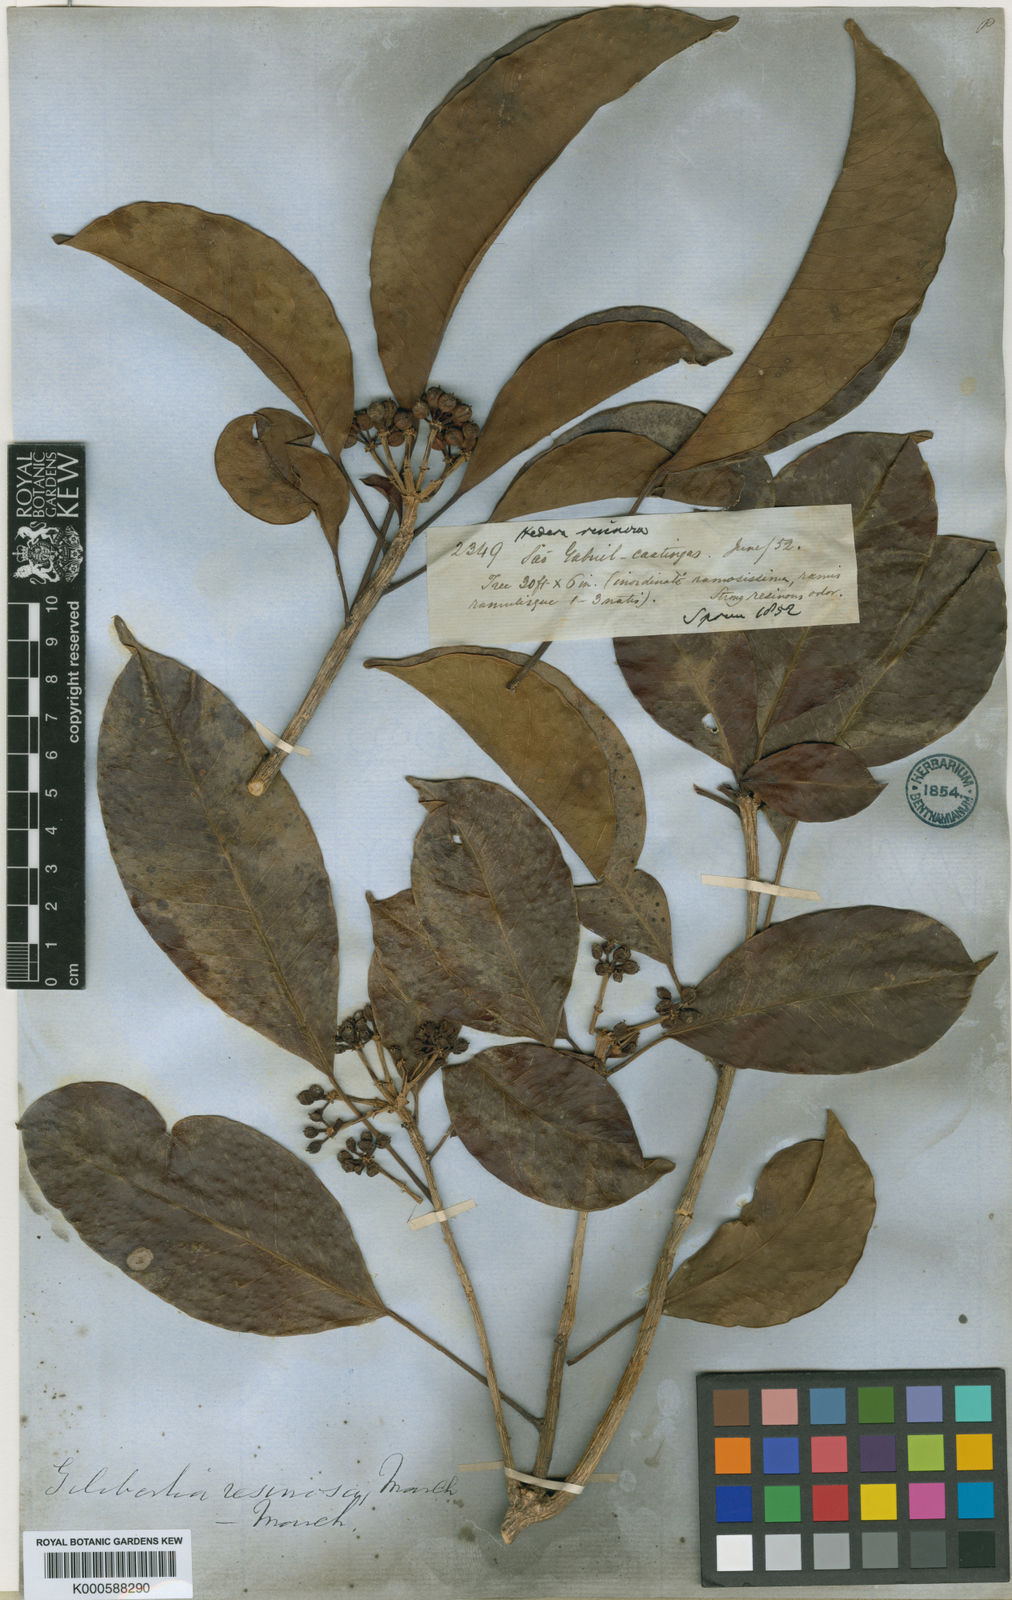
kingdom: Plantae
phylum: Tracheophyta
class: Magnoliopsida
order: Apiales
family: Araliaceae
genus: Dendropanax
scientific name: Dendropanax resinosus
